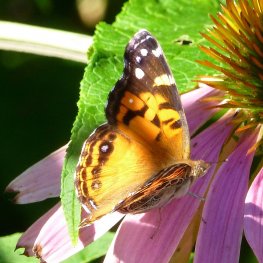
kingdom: Animalia
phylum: Arthropoda
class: Insecta
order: Lepidoptera
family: Nymphalidae
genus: Vanessa
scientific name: Vanessa virginiensis
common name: American Lady
